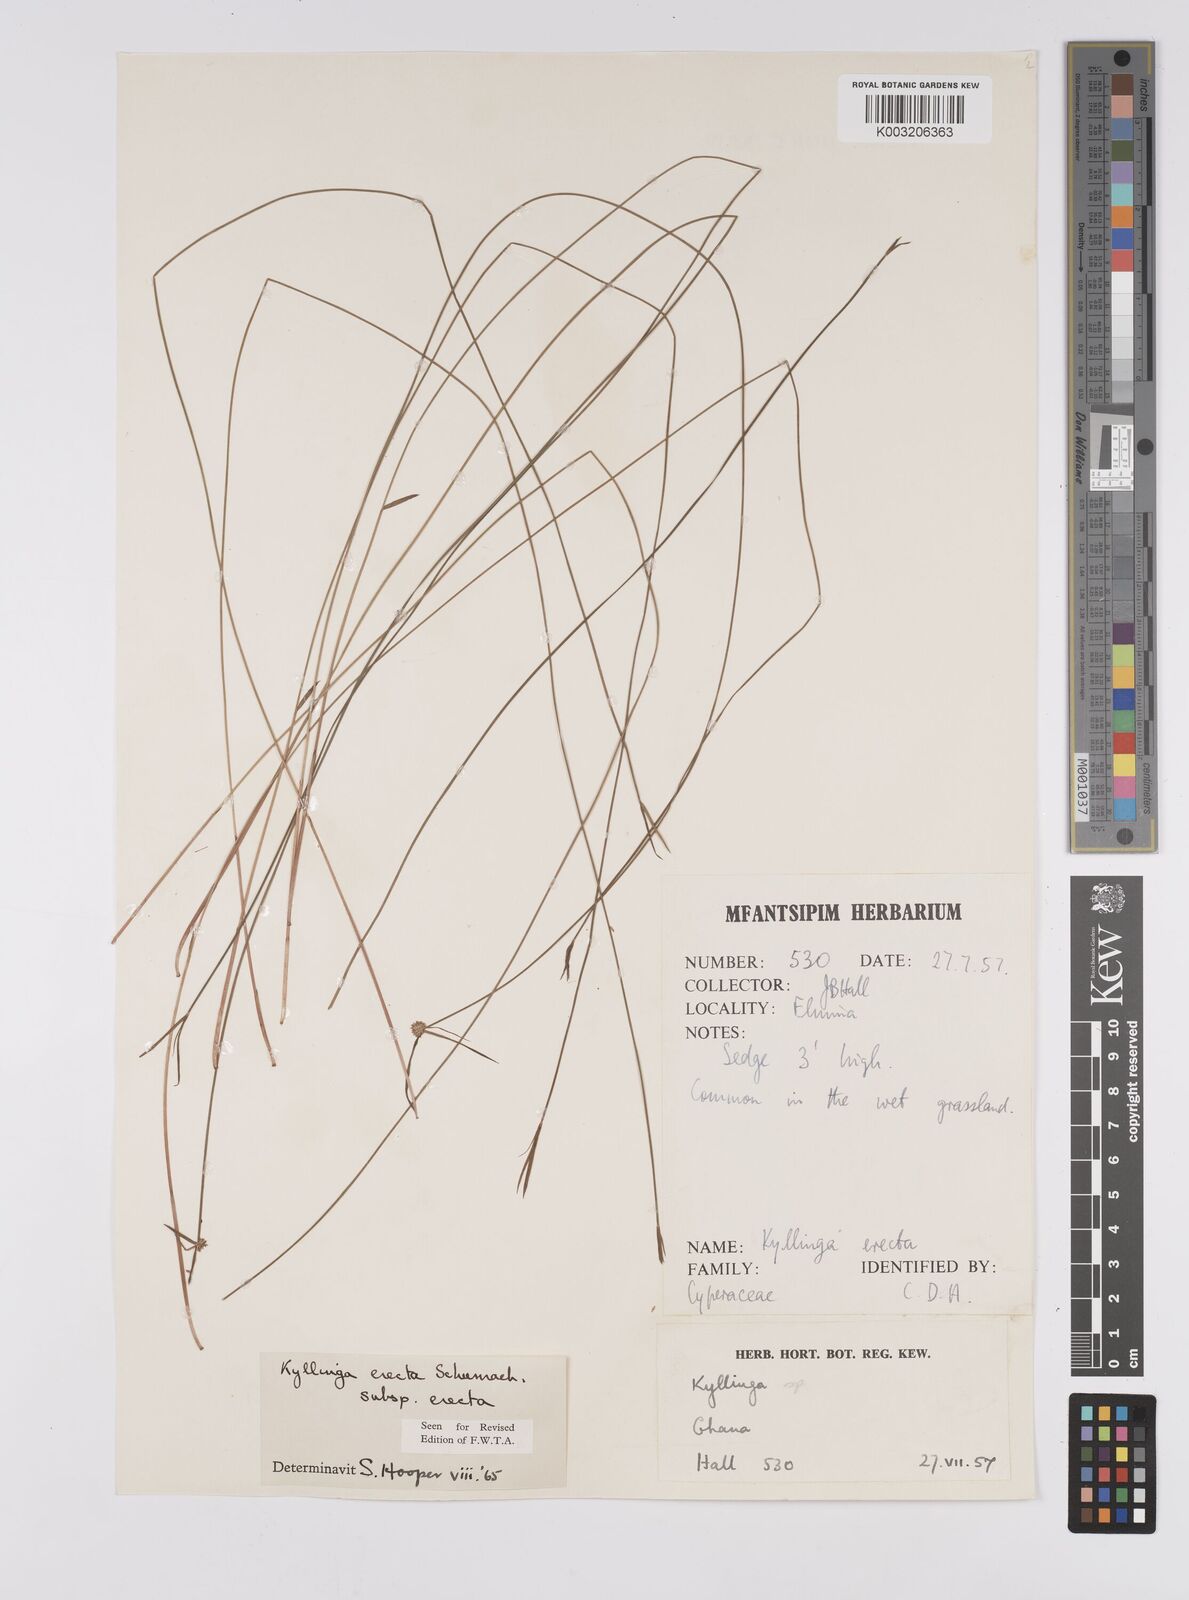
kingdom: Plantae
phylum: Tracheophyta
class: Liliopsida
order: Poales
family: Cyperaceae
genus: Cyperus
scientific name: Cyperus erectus
